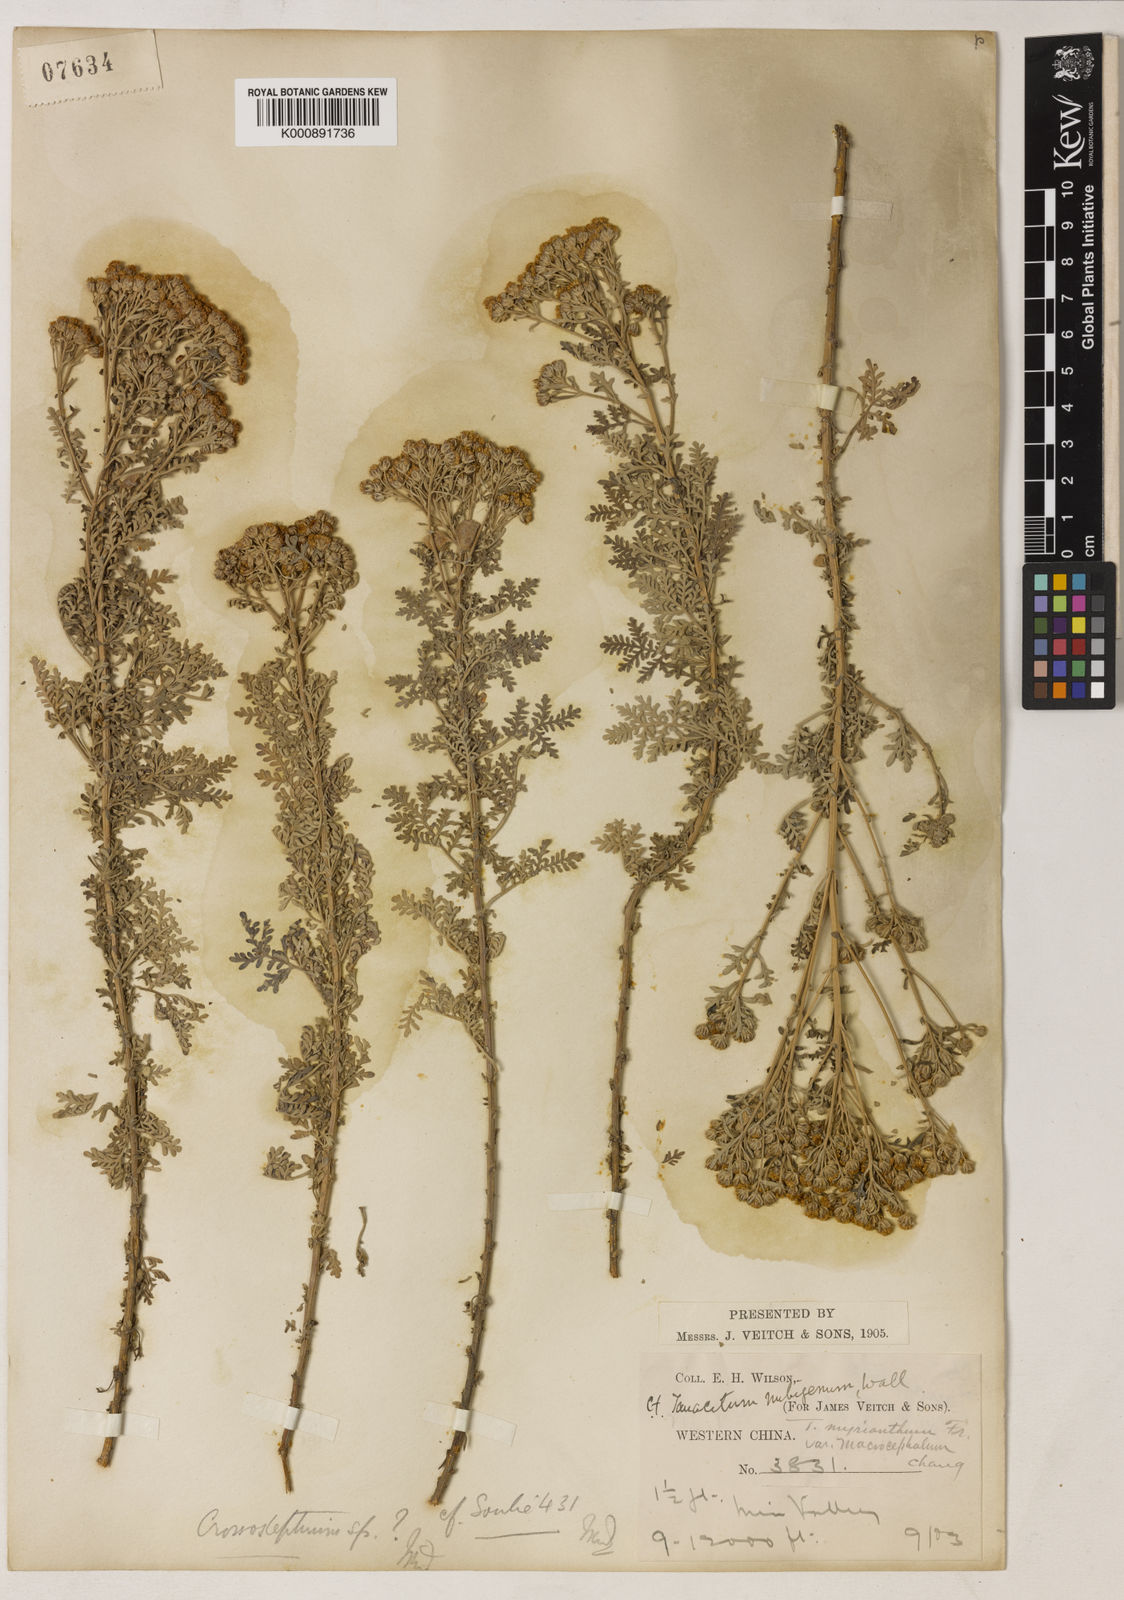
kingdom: Plantae
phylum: Tracheophyta
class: Magnoliopsida
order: Asterales
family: Asteraceae
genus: Ajania
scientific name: Ajania myriantha
